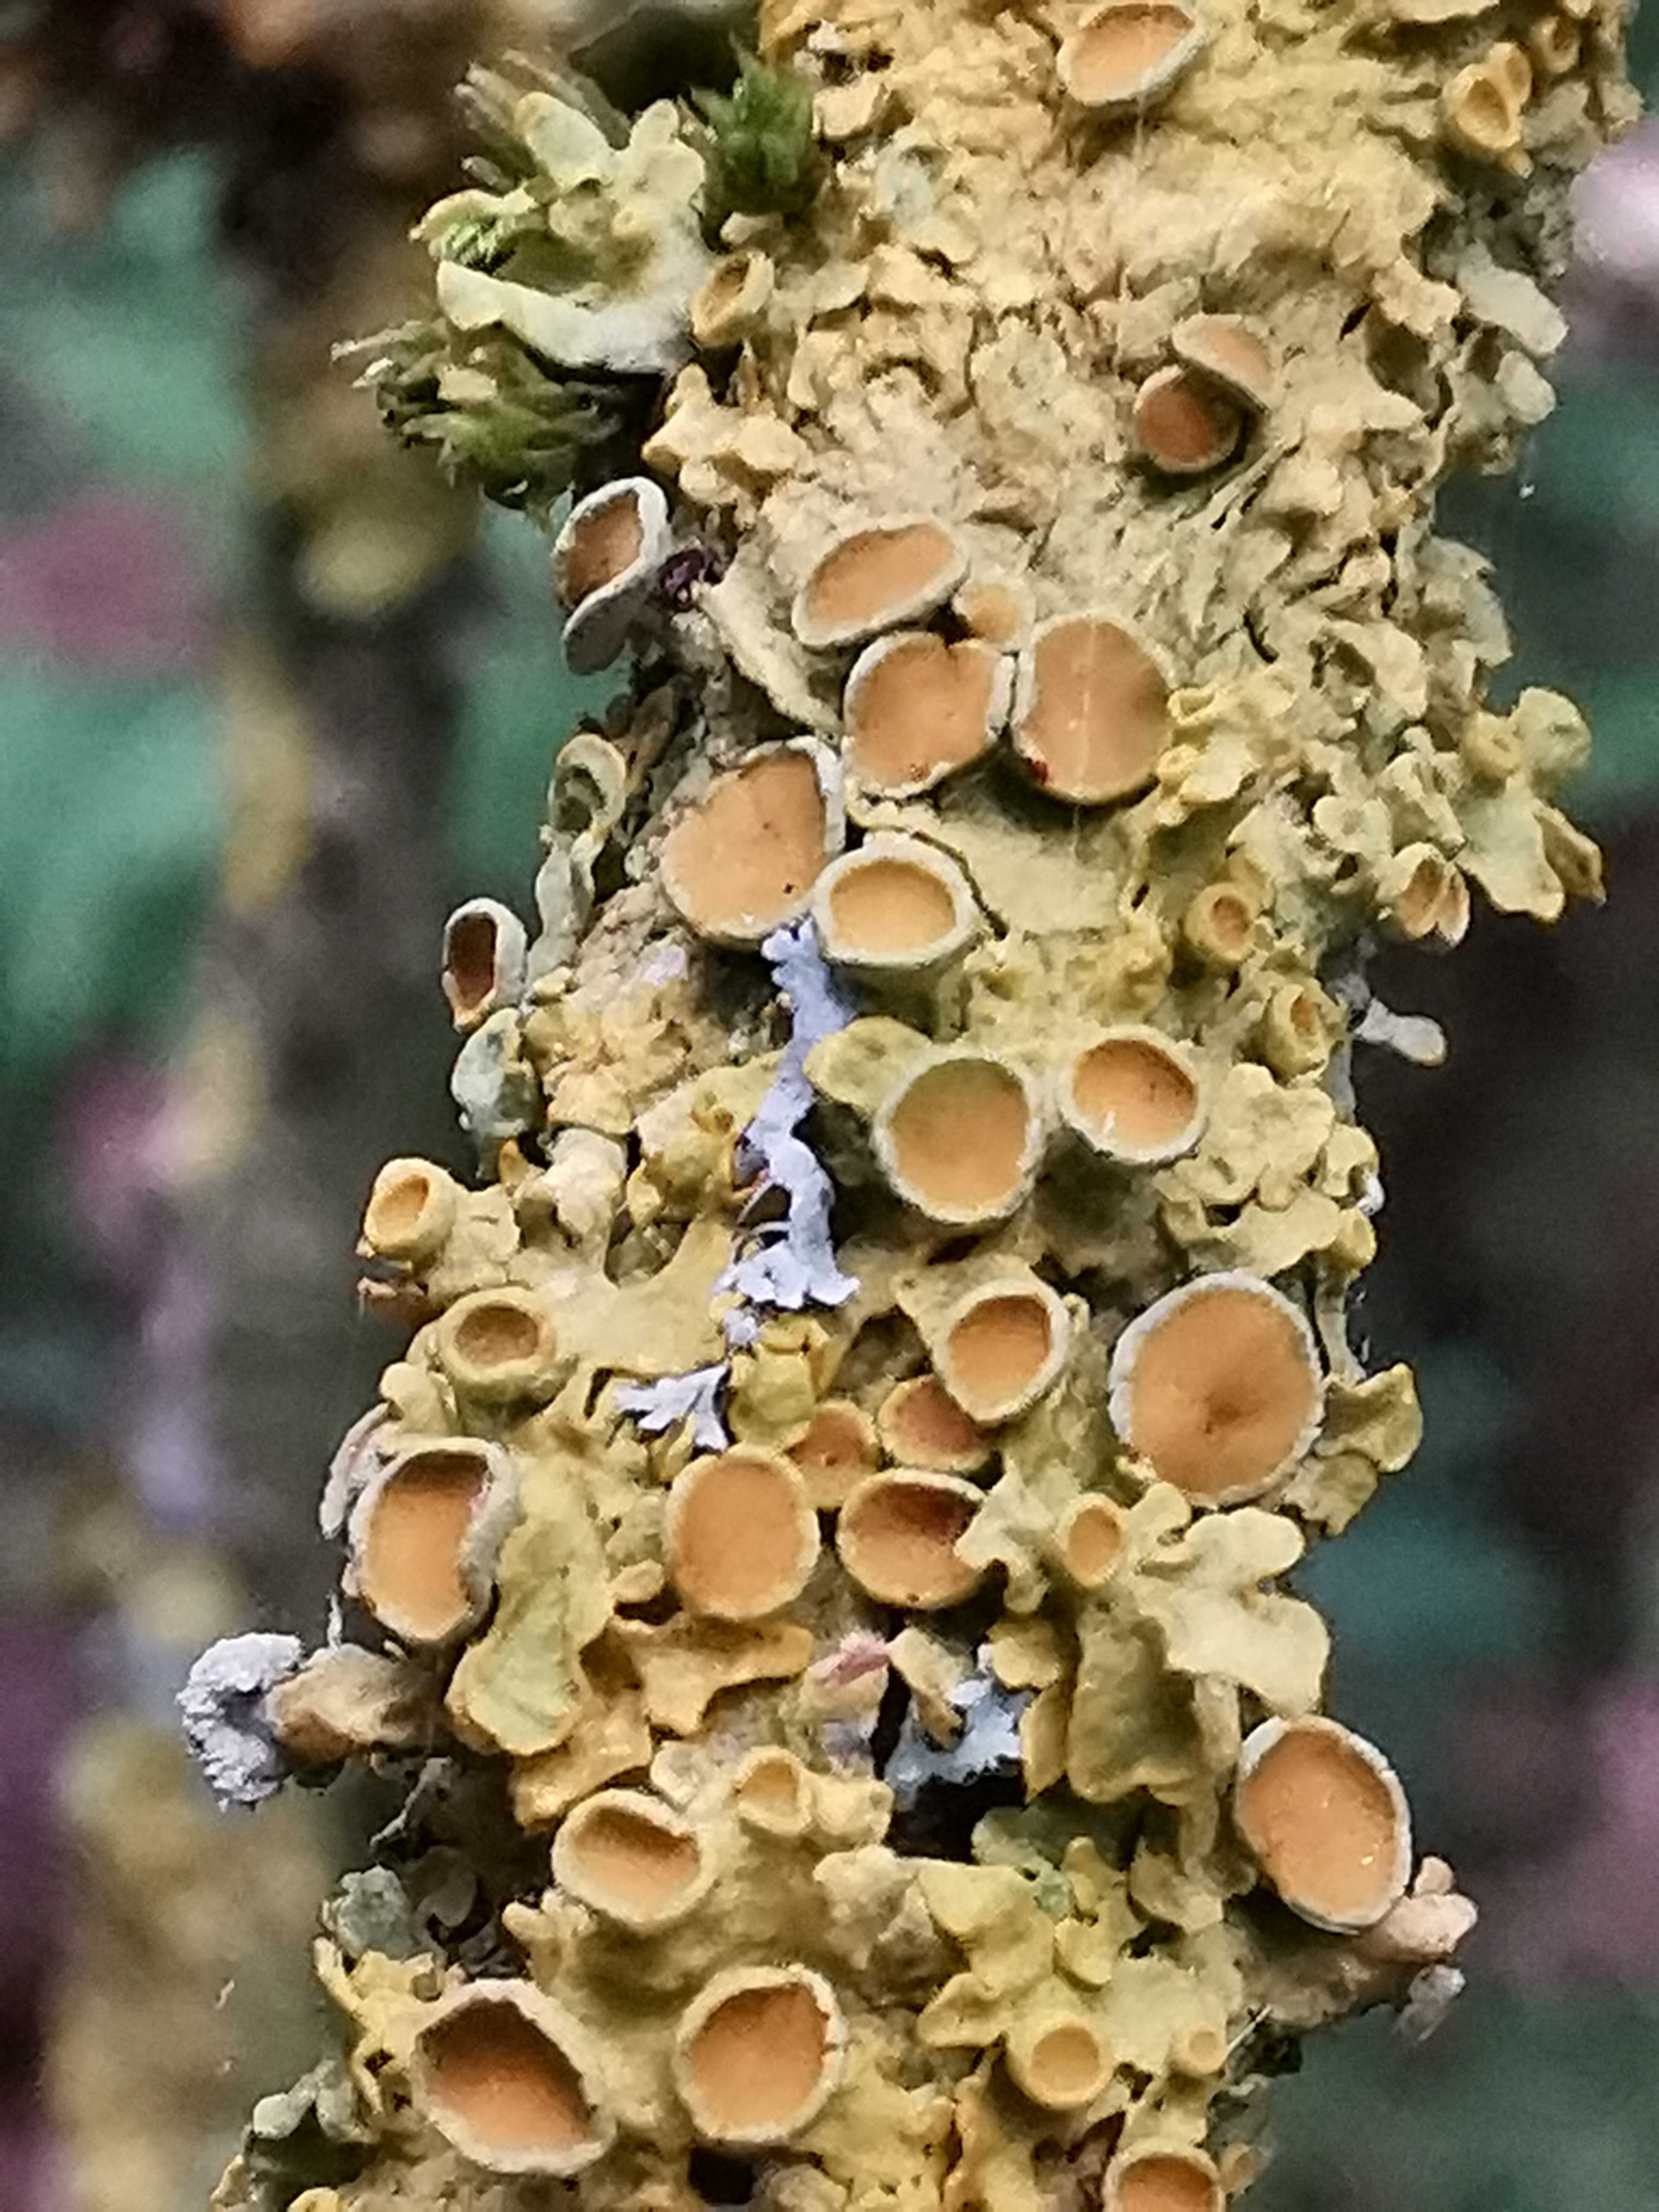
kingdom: Fungi
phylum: Ascomycota
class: Lecanoromycetes
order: Teloschistales
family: Teloschistaceae
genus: Xanthoria
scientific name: Xanthoria parietina
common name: almindelig væggelav
